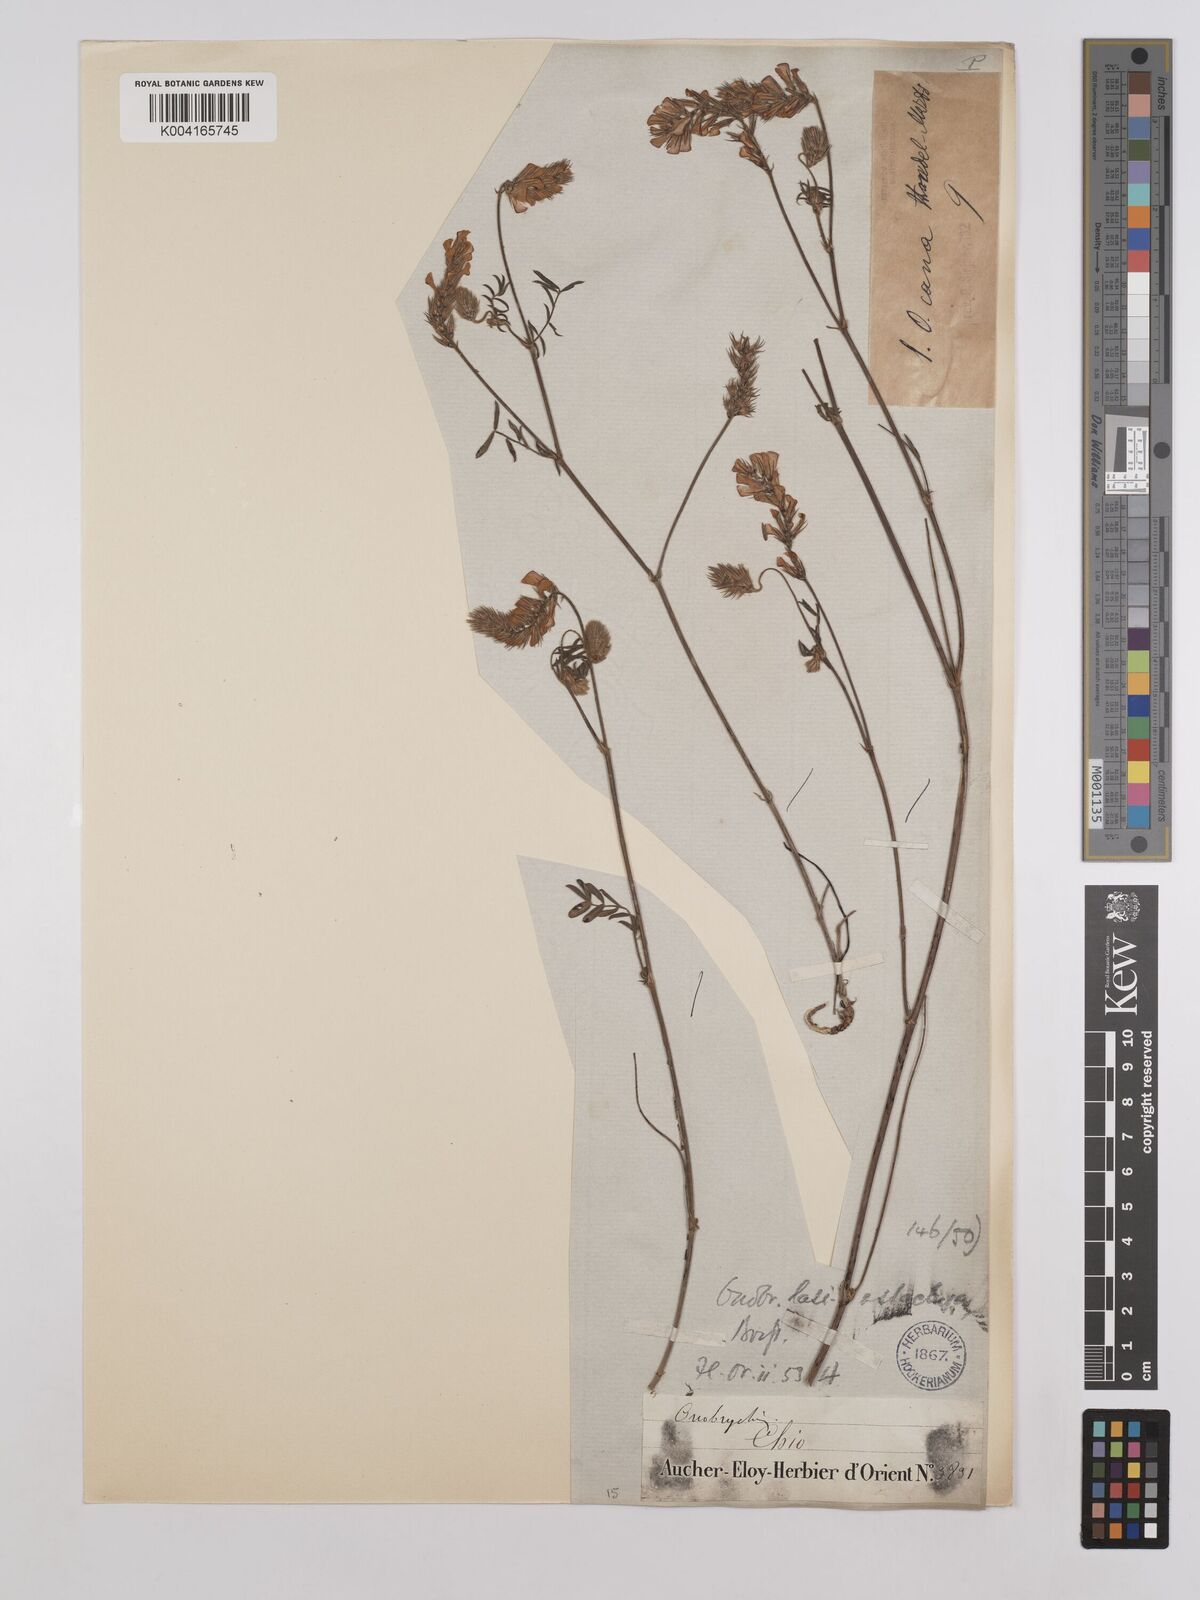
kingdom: Plantae
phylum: Tracheophyta
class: Magnoliopsida
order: Fabales
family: Fabaceae
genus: Onobrychis
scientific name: Onobrychis arenaria
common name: Sand esparcet
